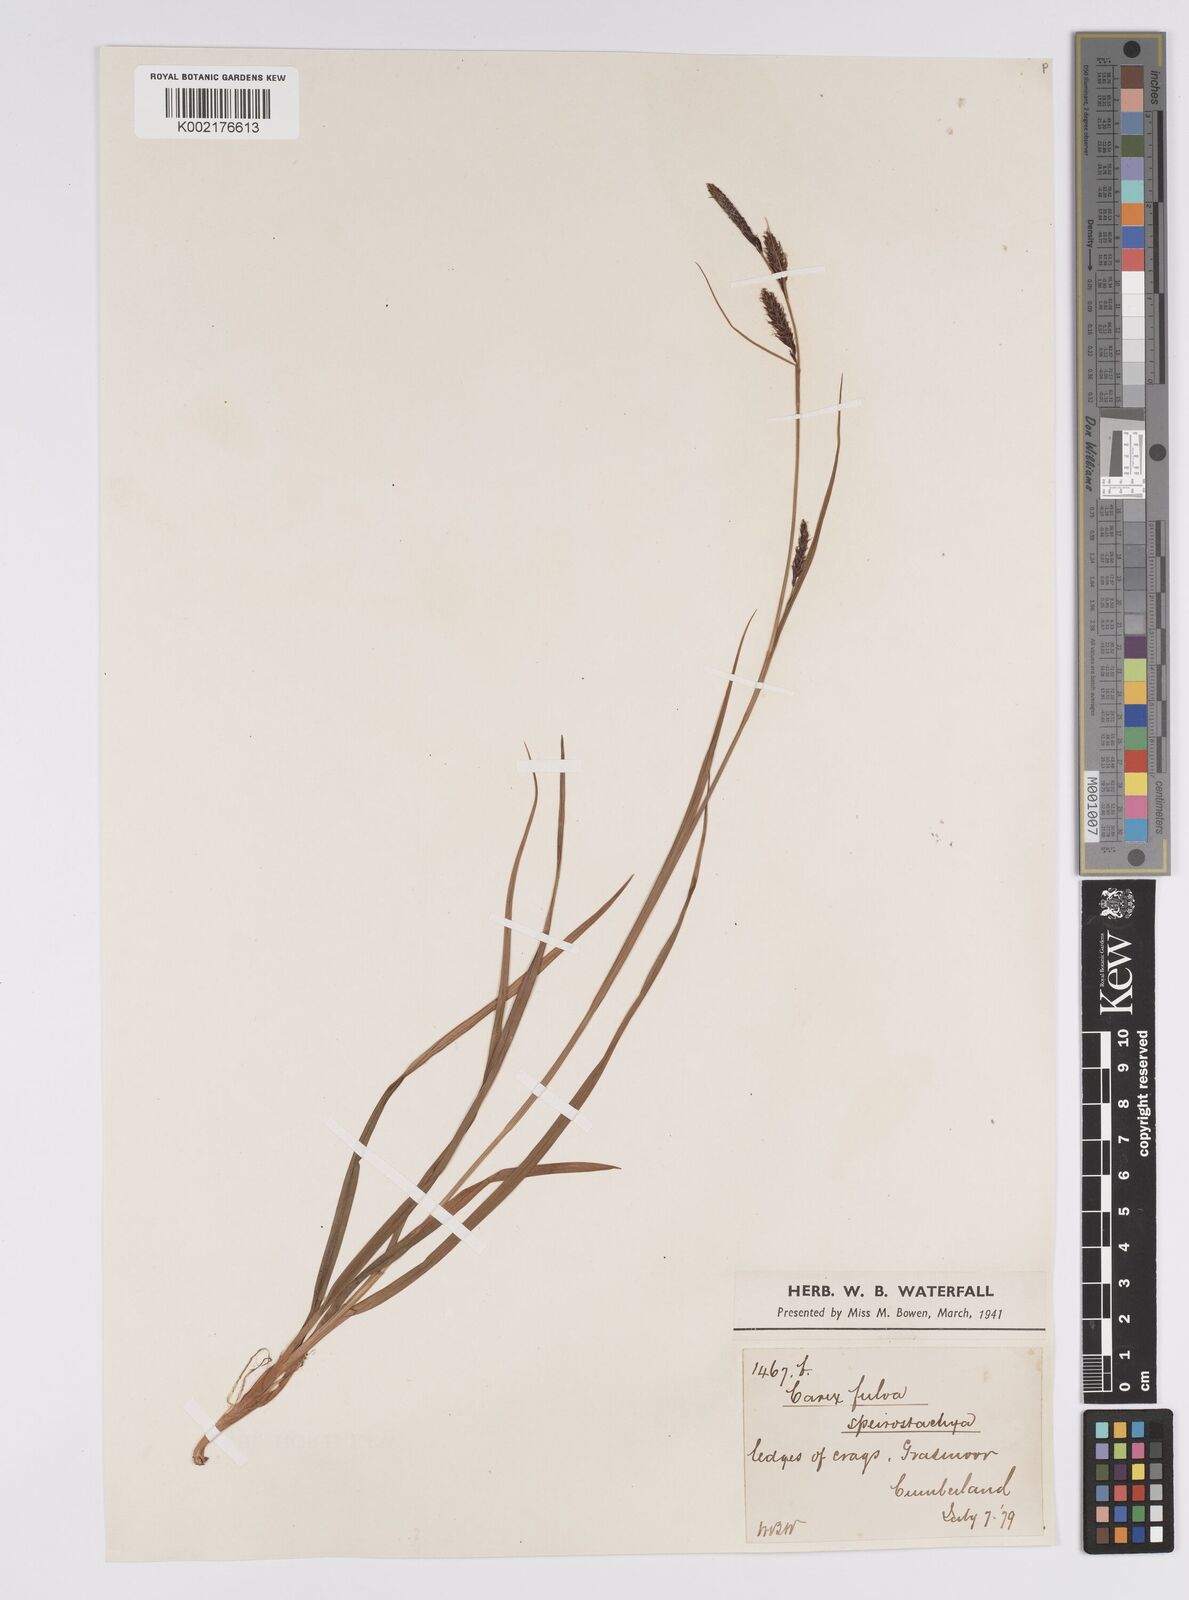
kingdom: Plantae
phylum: Tracheophyta
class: Liliopsida
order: Poales
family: Cyperaceae
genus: Carex
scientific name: Carex binervis
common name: Green-ribbed sedge
